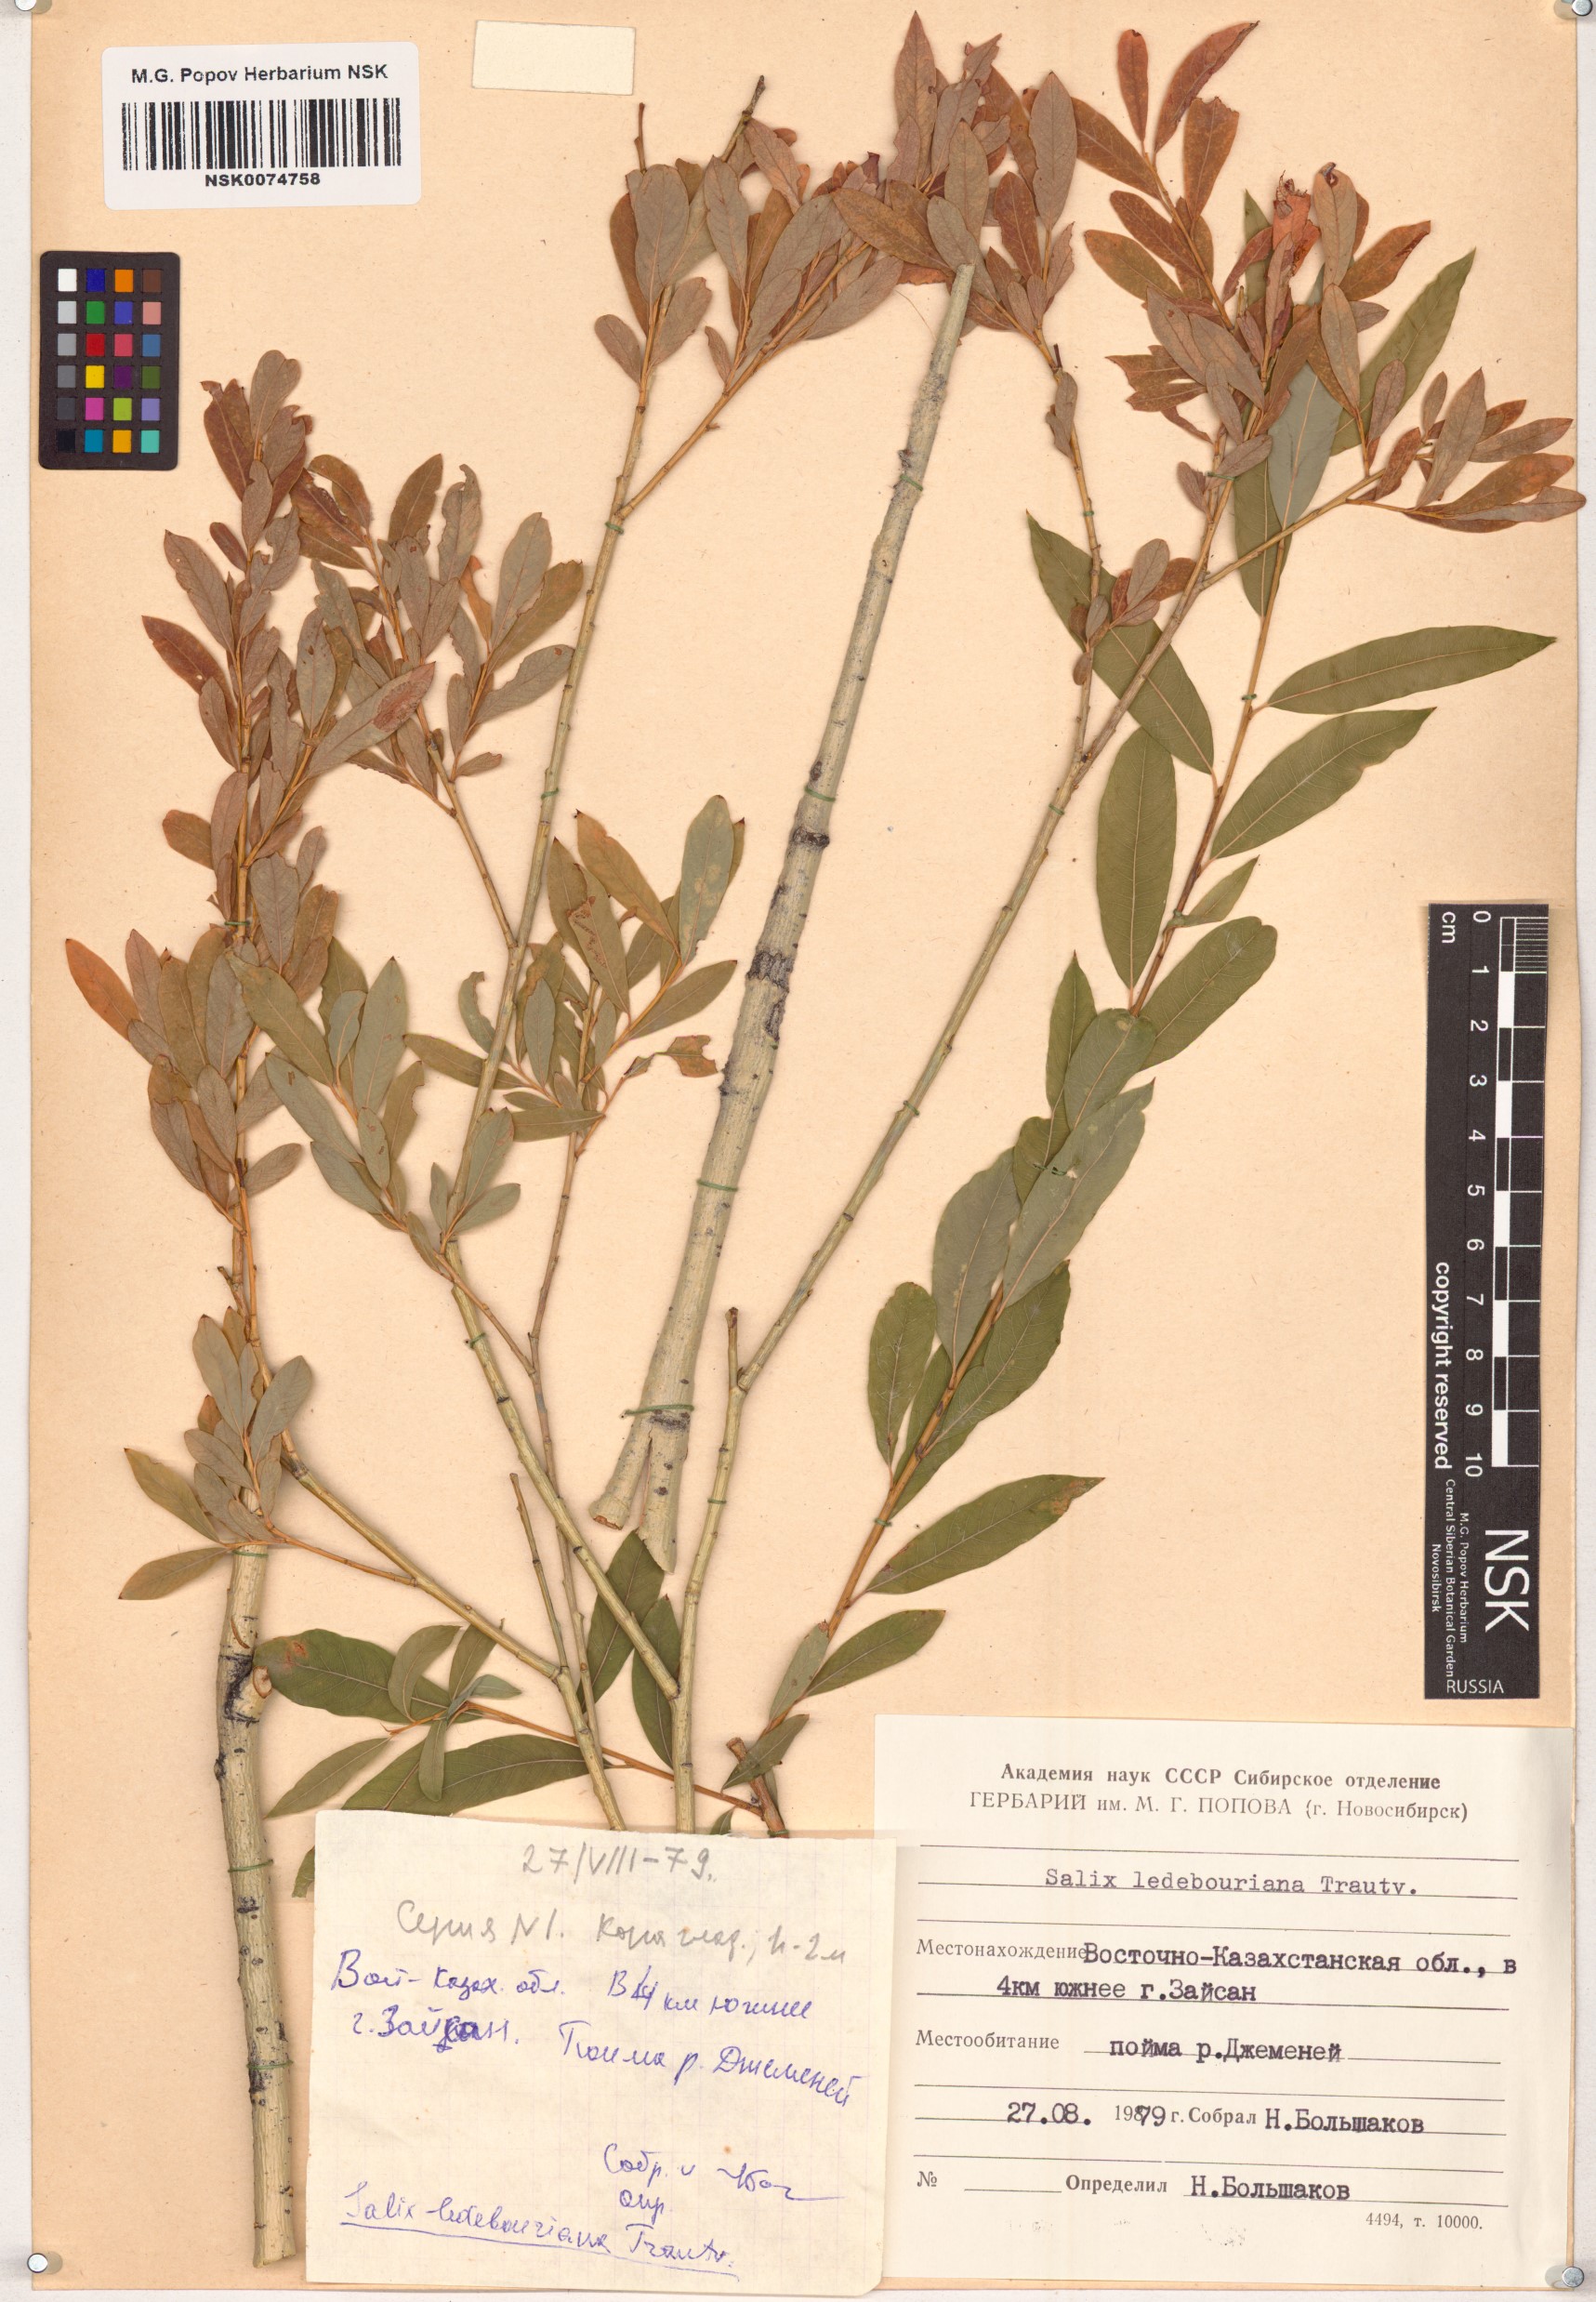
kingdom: Plantae
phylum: Tracheophyta
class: Magnoliopsida
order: Malpighiales
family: Salicaceae
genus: Salix
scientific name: Salix ledebouriana
